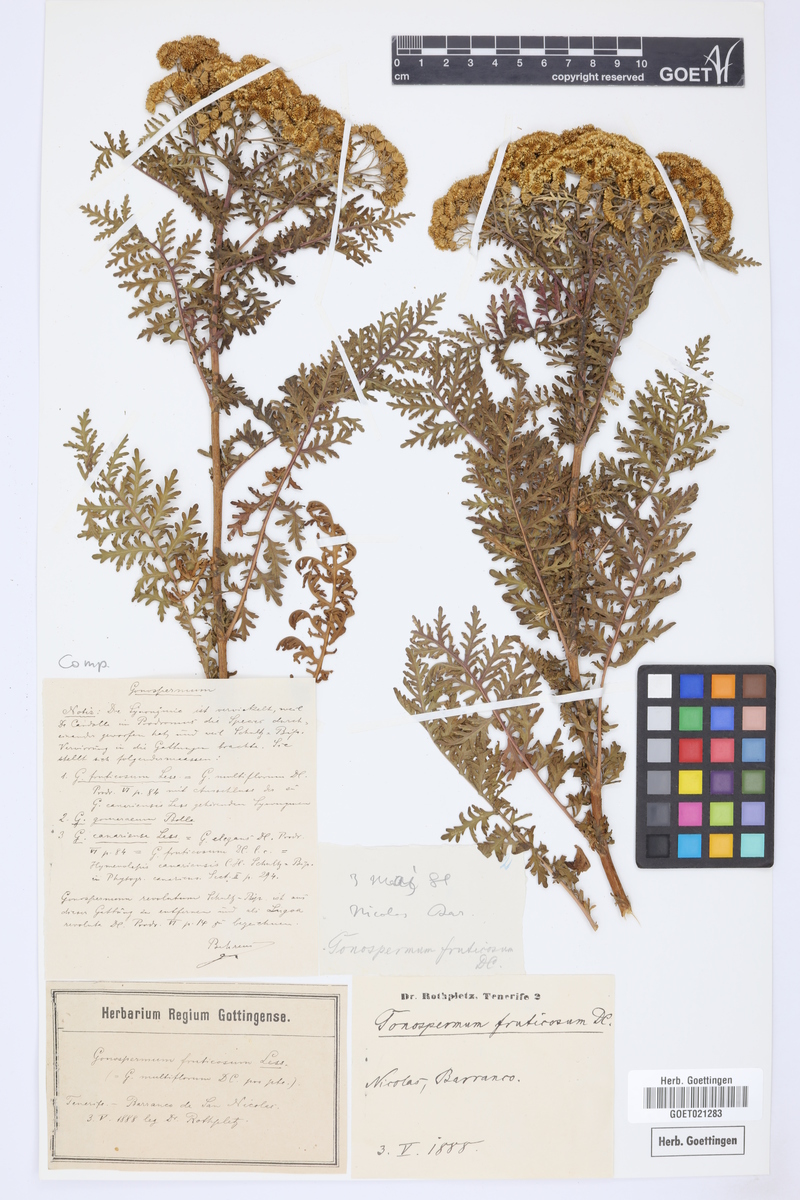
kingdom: Plantae
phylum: Tracheophyta
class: Magnoliopsida
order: Asterales
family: Asteraceae
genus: Gonospermum
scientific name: Gonospermum fruticosum
